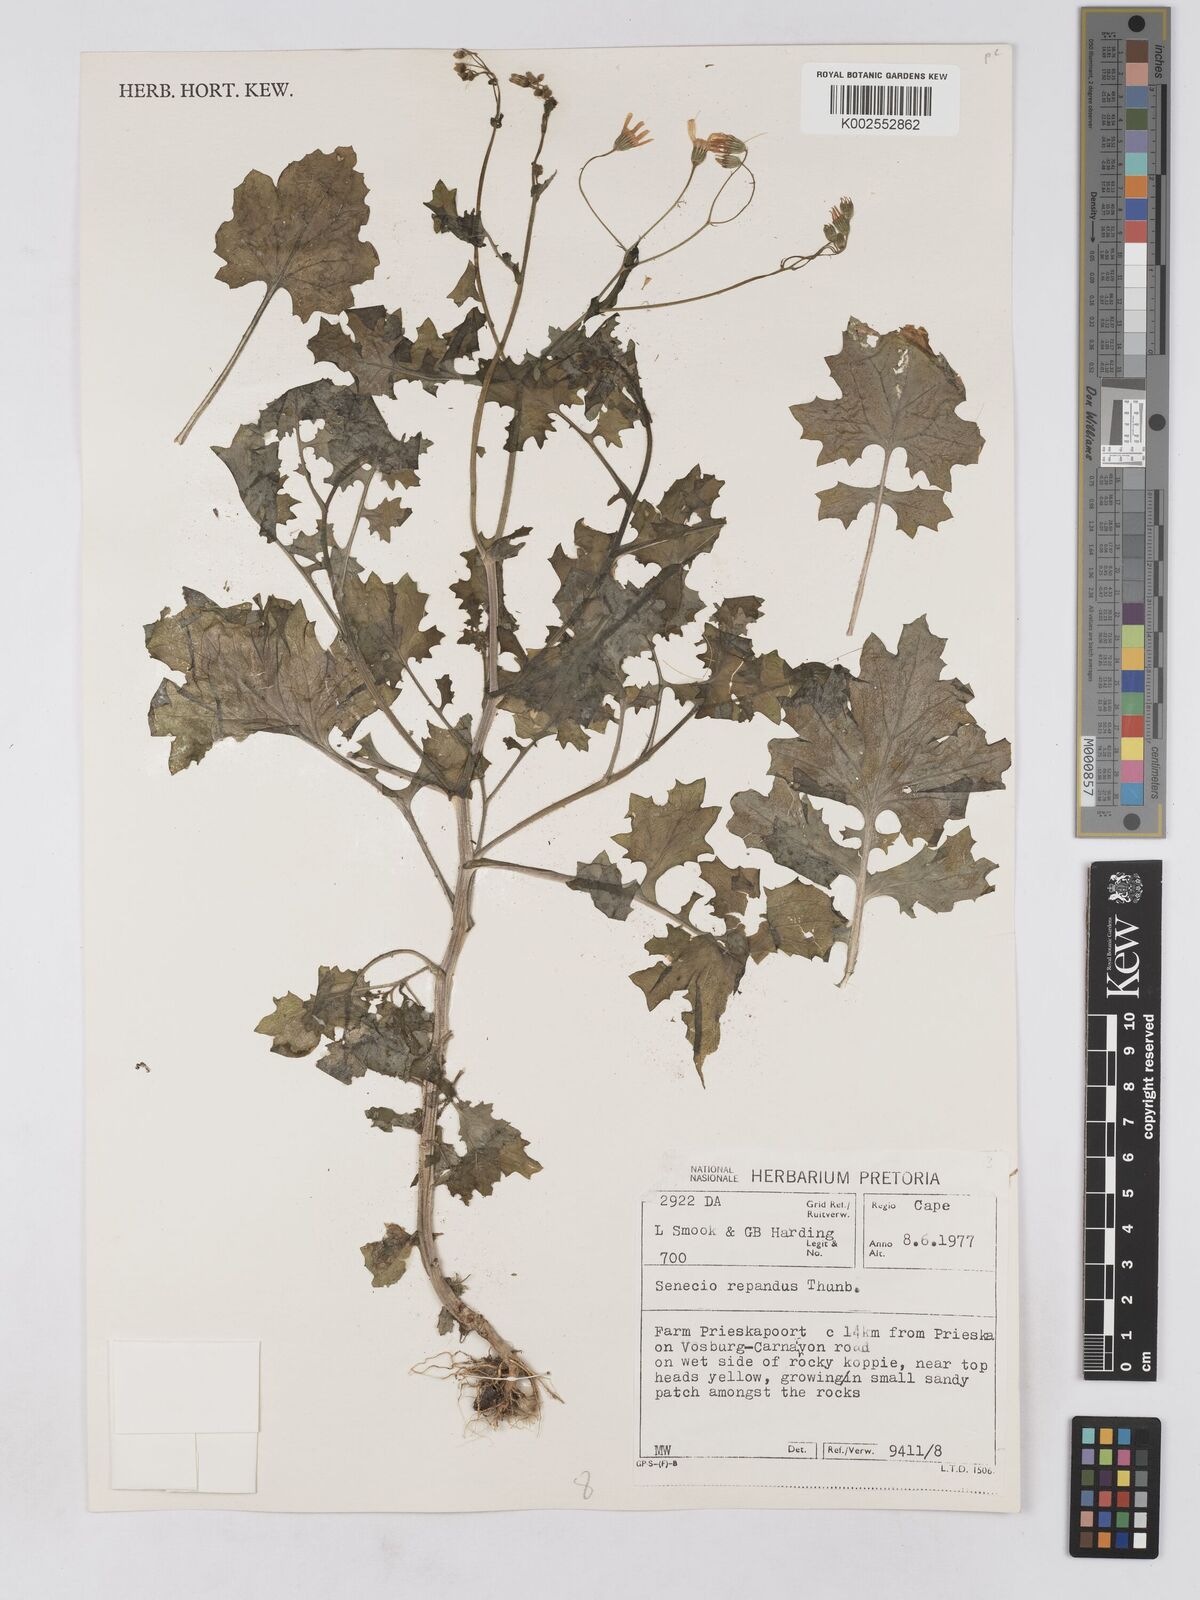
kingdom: Plantae
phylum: Tracheophyta
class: Magnoliopsida
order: Asterales
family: Asteraceae
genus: Senecio
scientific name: Senecio repandus
